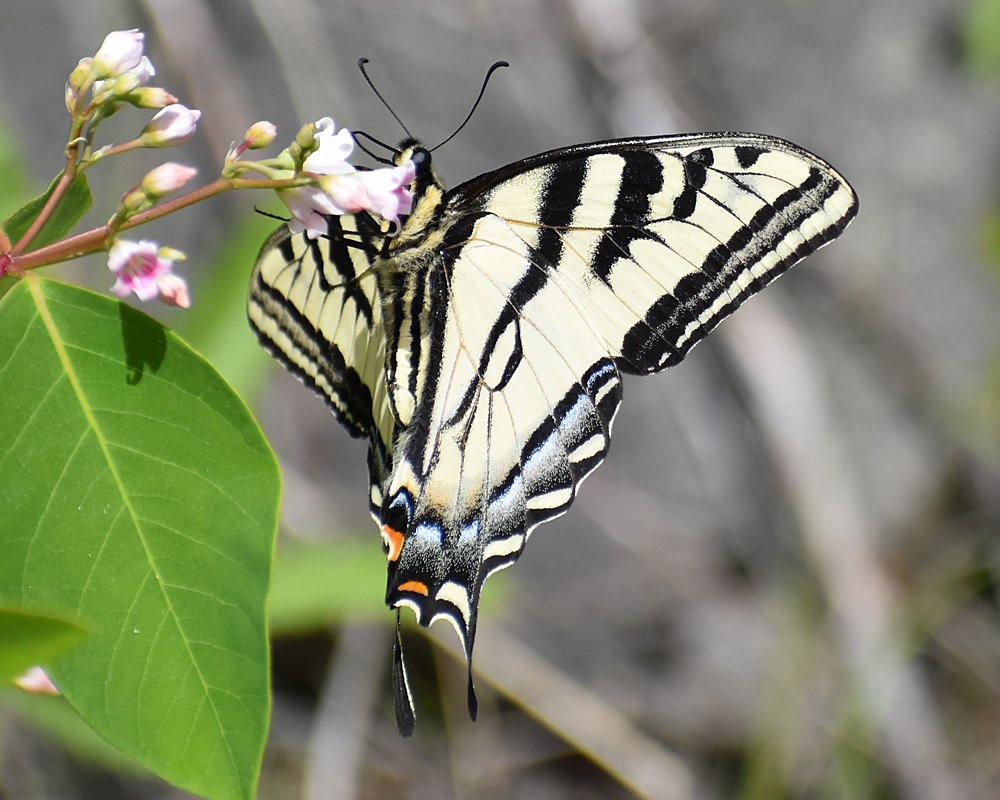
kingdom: Animalia
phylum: Arthropoda
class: Insecta
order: Lepidoptera
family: Papilionidae
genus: Pterourus
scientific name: Pterourus rutulus
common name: Western Tiger Swallowtail
